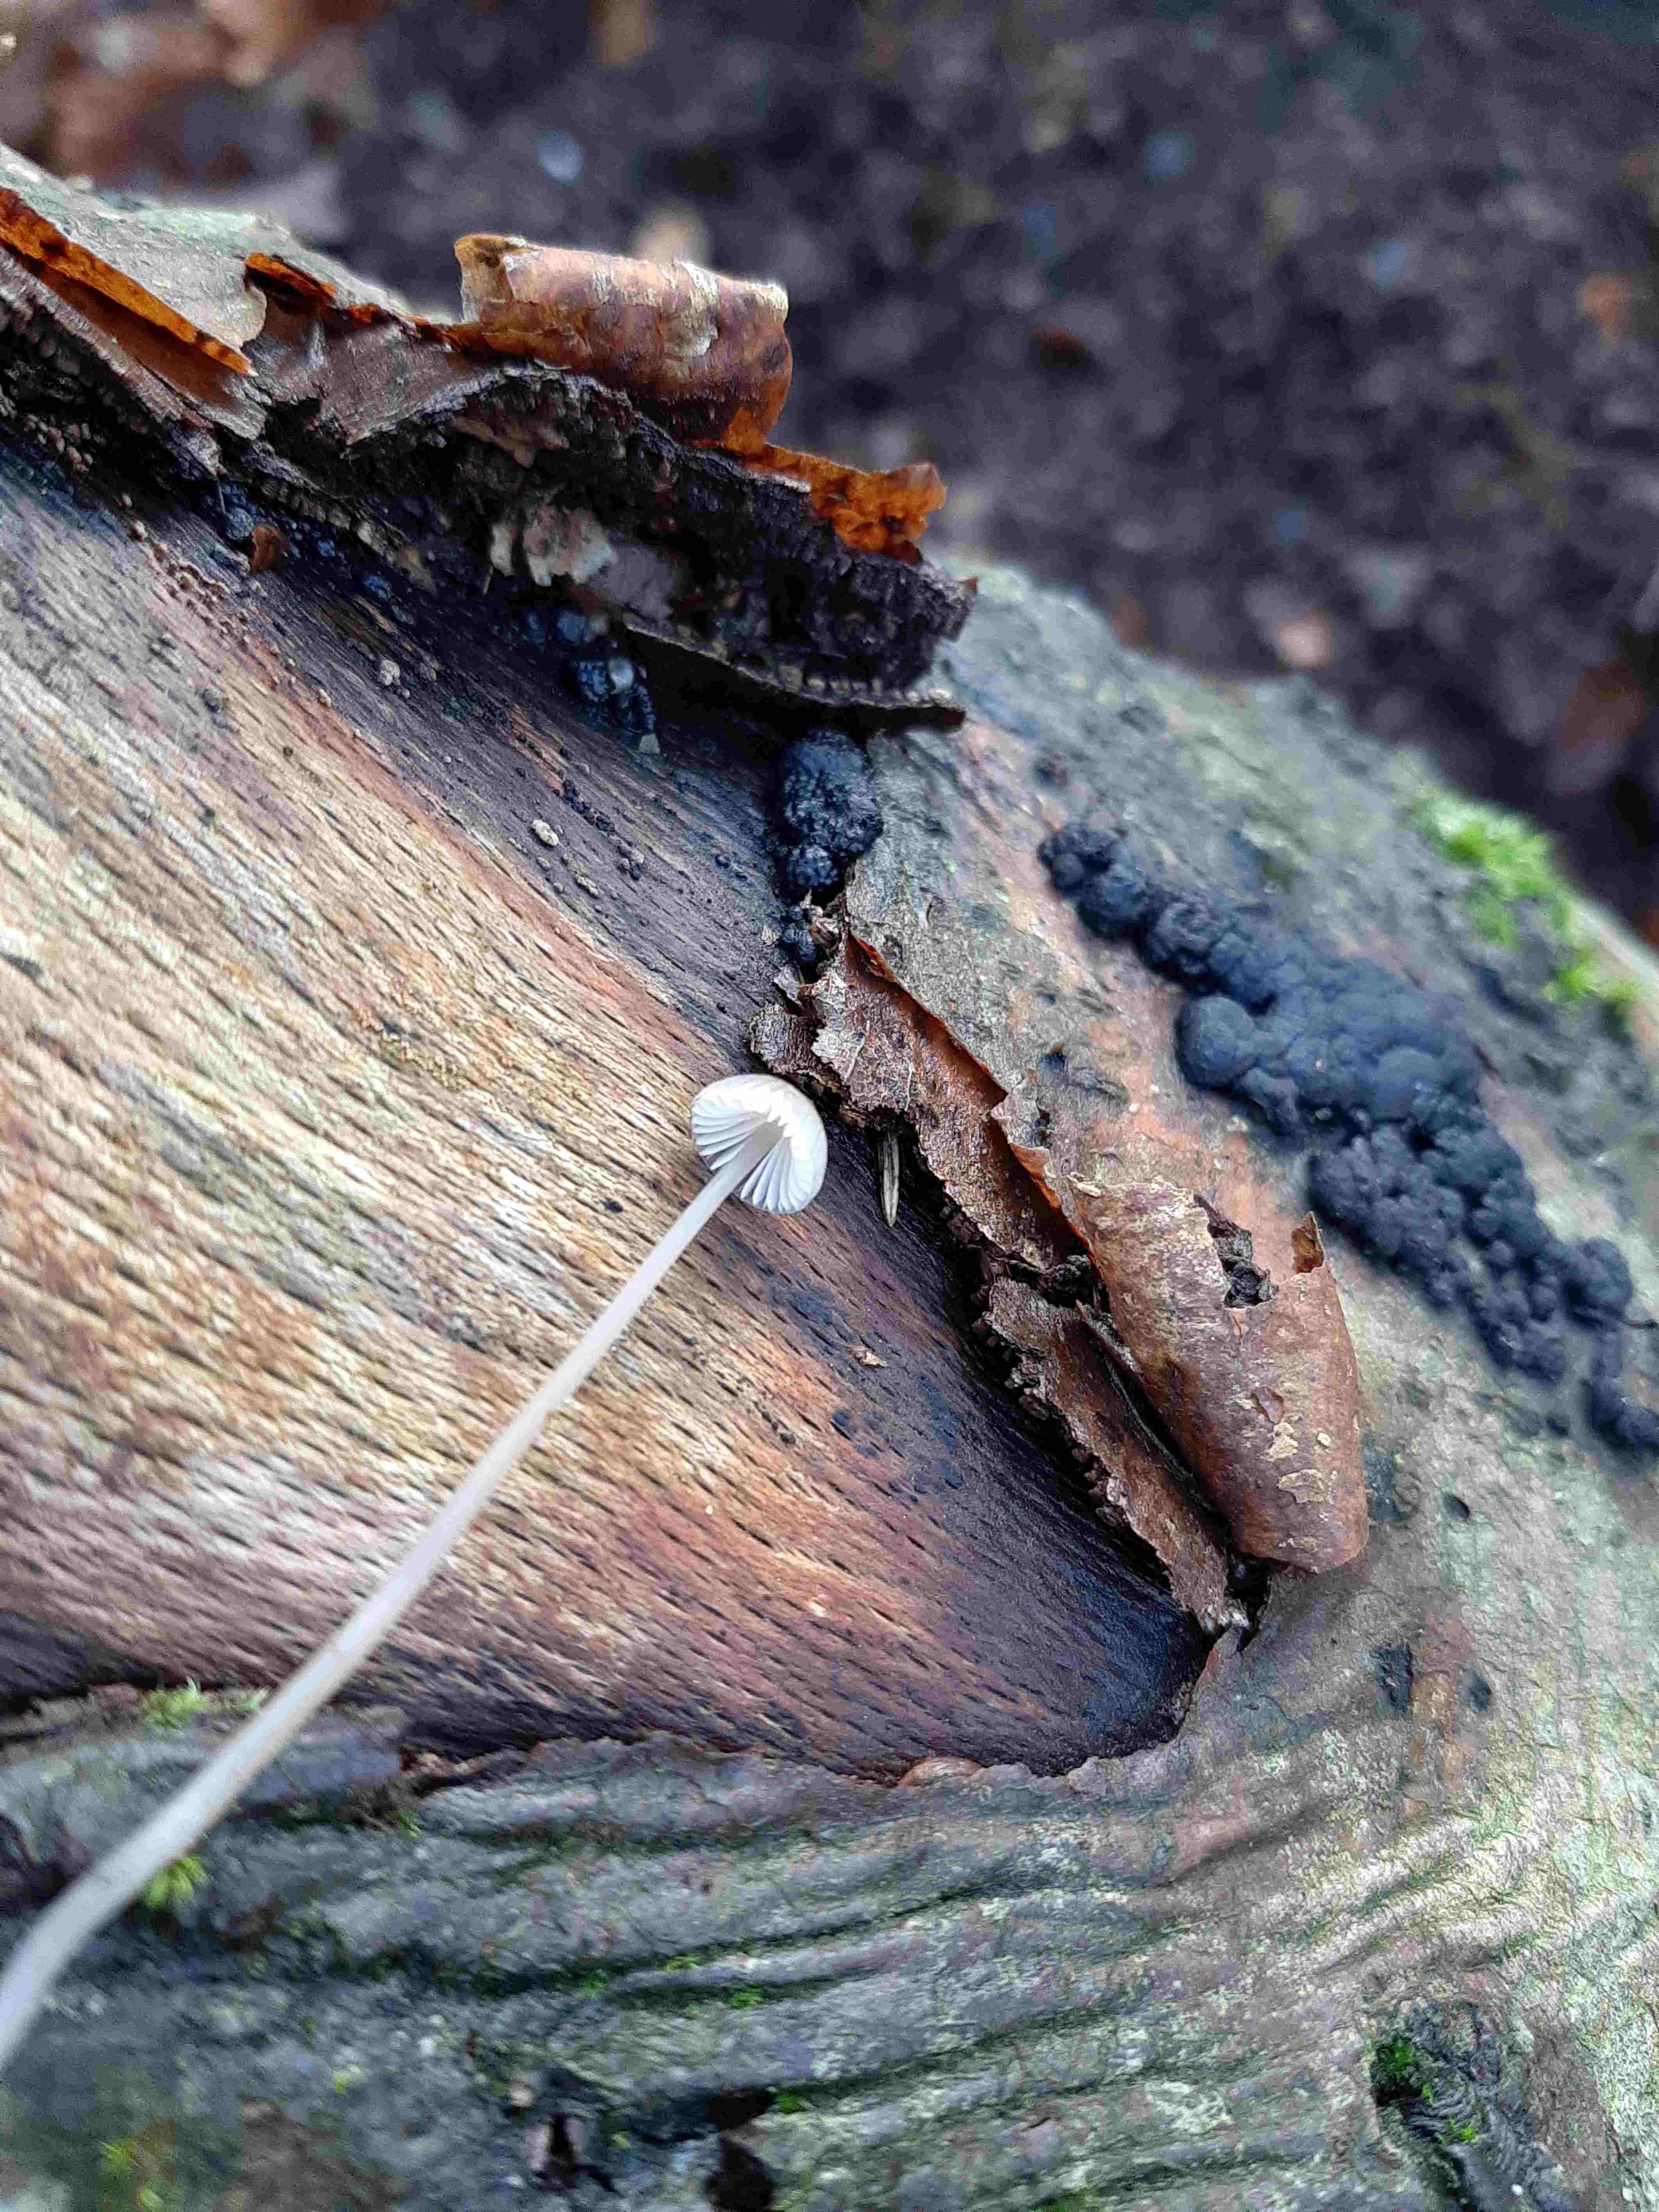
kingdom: Fungi
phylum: Basidiomycota
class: Agaricomycetes
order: Agaricales
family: Mycenaceae
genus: Mycena
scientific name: Mycena
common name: huesvamp
